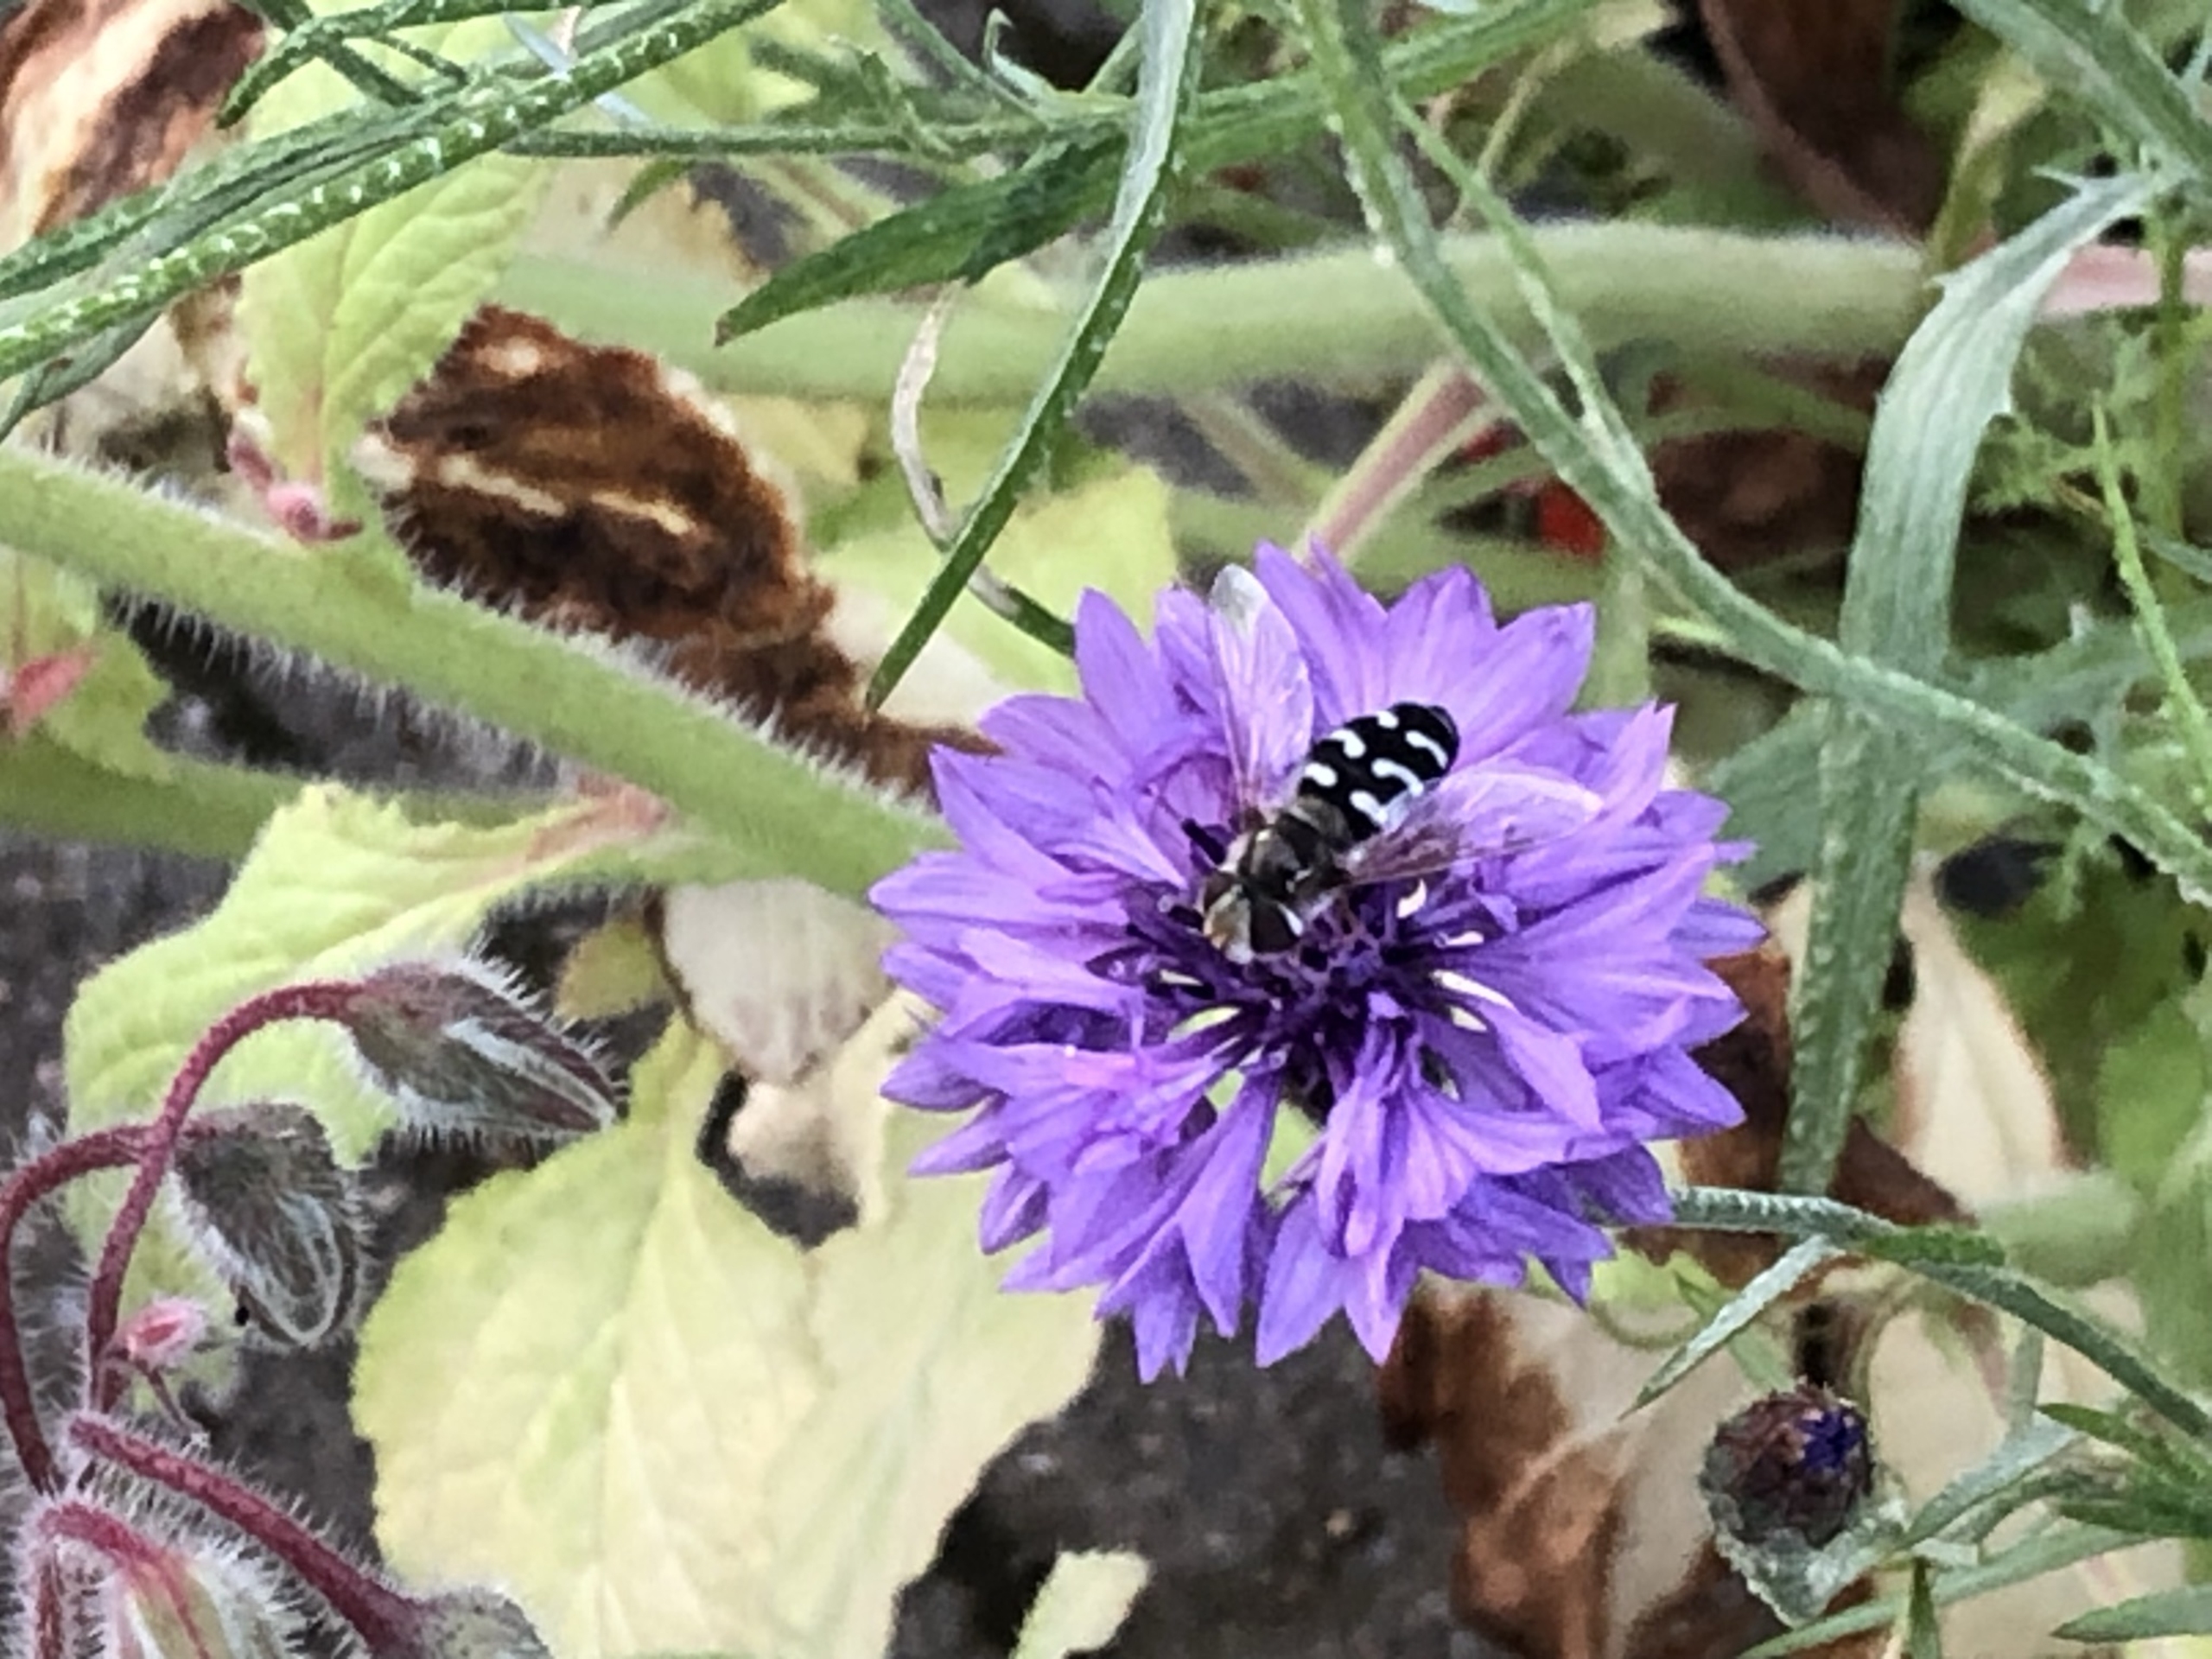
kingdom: Animalia
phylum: Arthropoda
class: Insecta
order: Diptera
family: Syrphidae
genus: Scaeva
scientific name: Scaeva pyrastri
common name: Hvidplettet agersvirreflue
